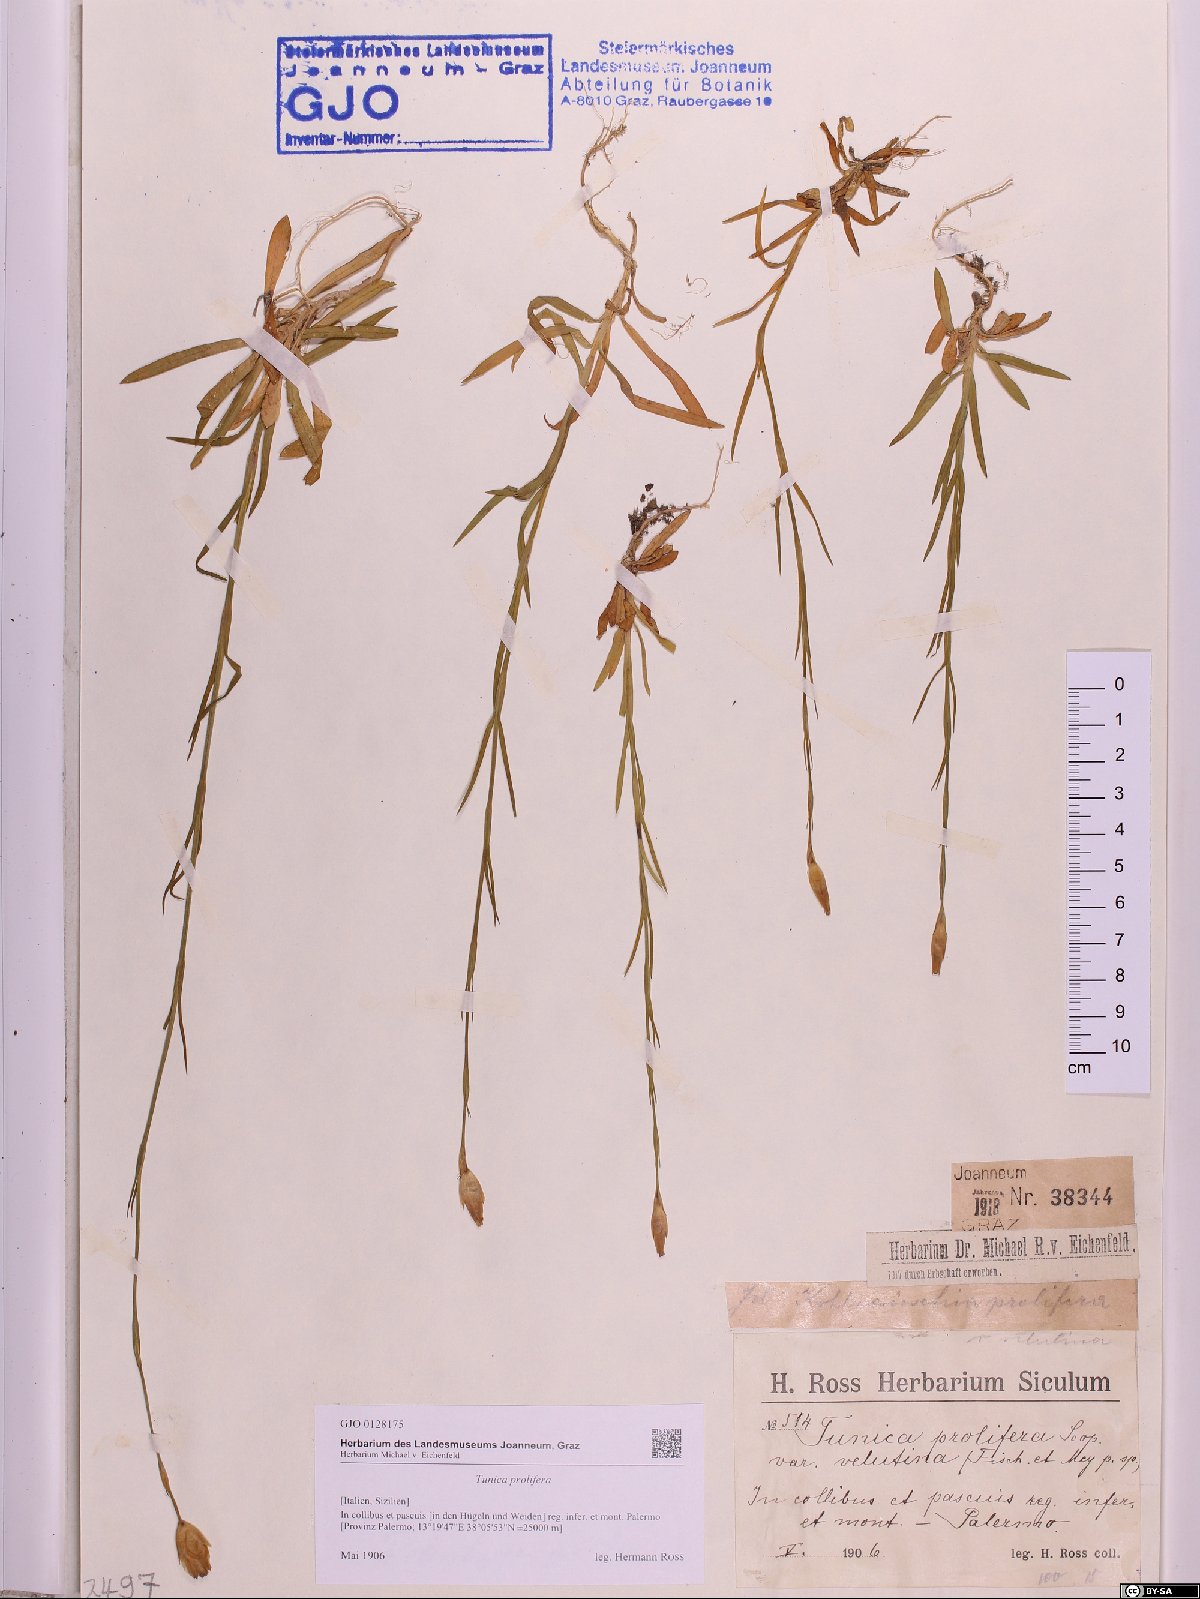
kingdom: Plantae
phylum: Tracheophyta
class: Magnoliopsida
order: Caryophyllales
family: Caryophyllaceae
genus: Petrorhagia
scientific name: Petrorhagia prolifera
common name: Proliferous pink
